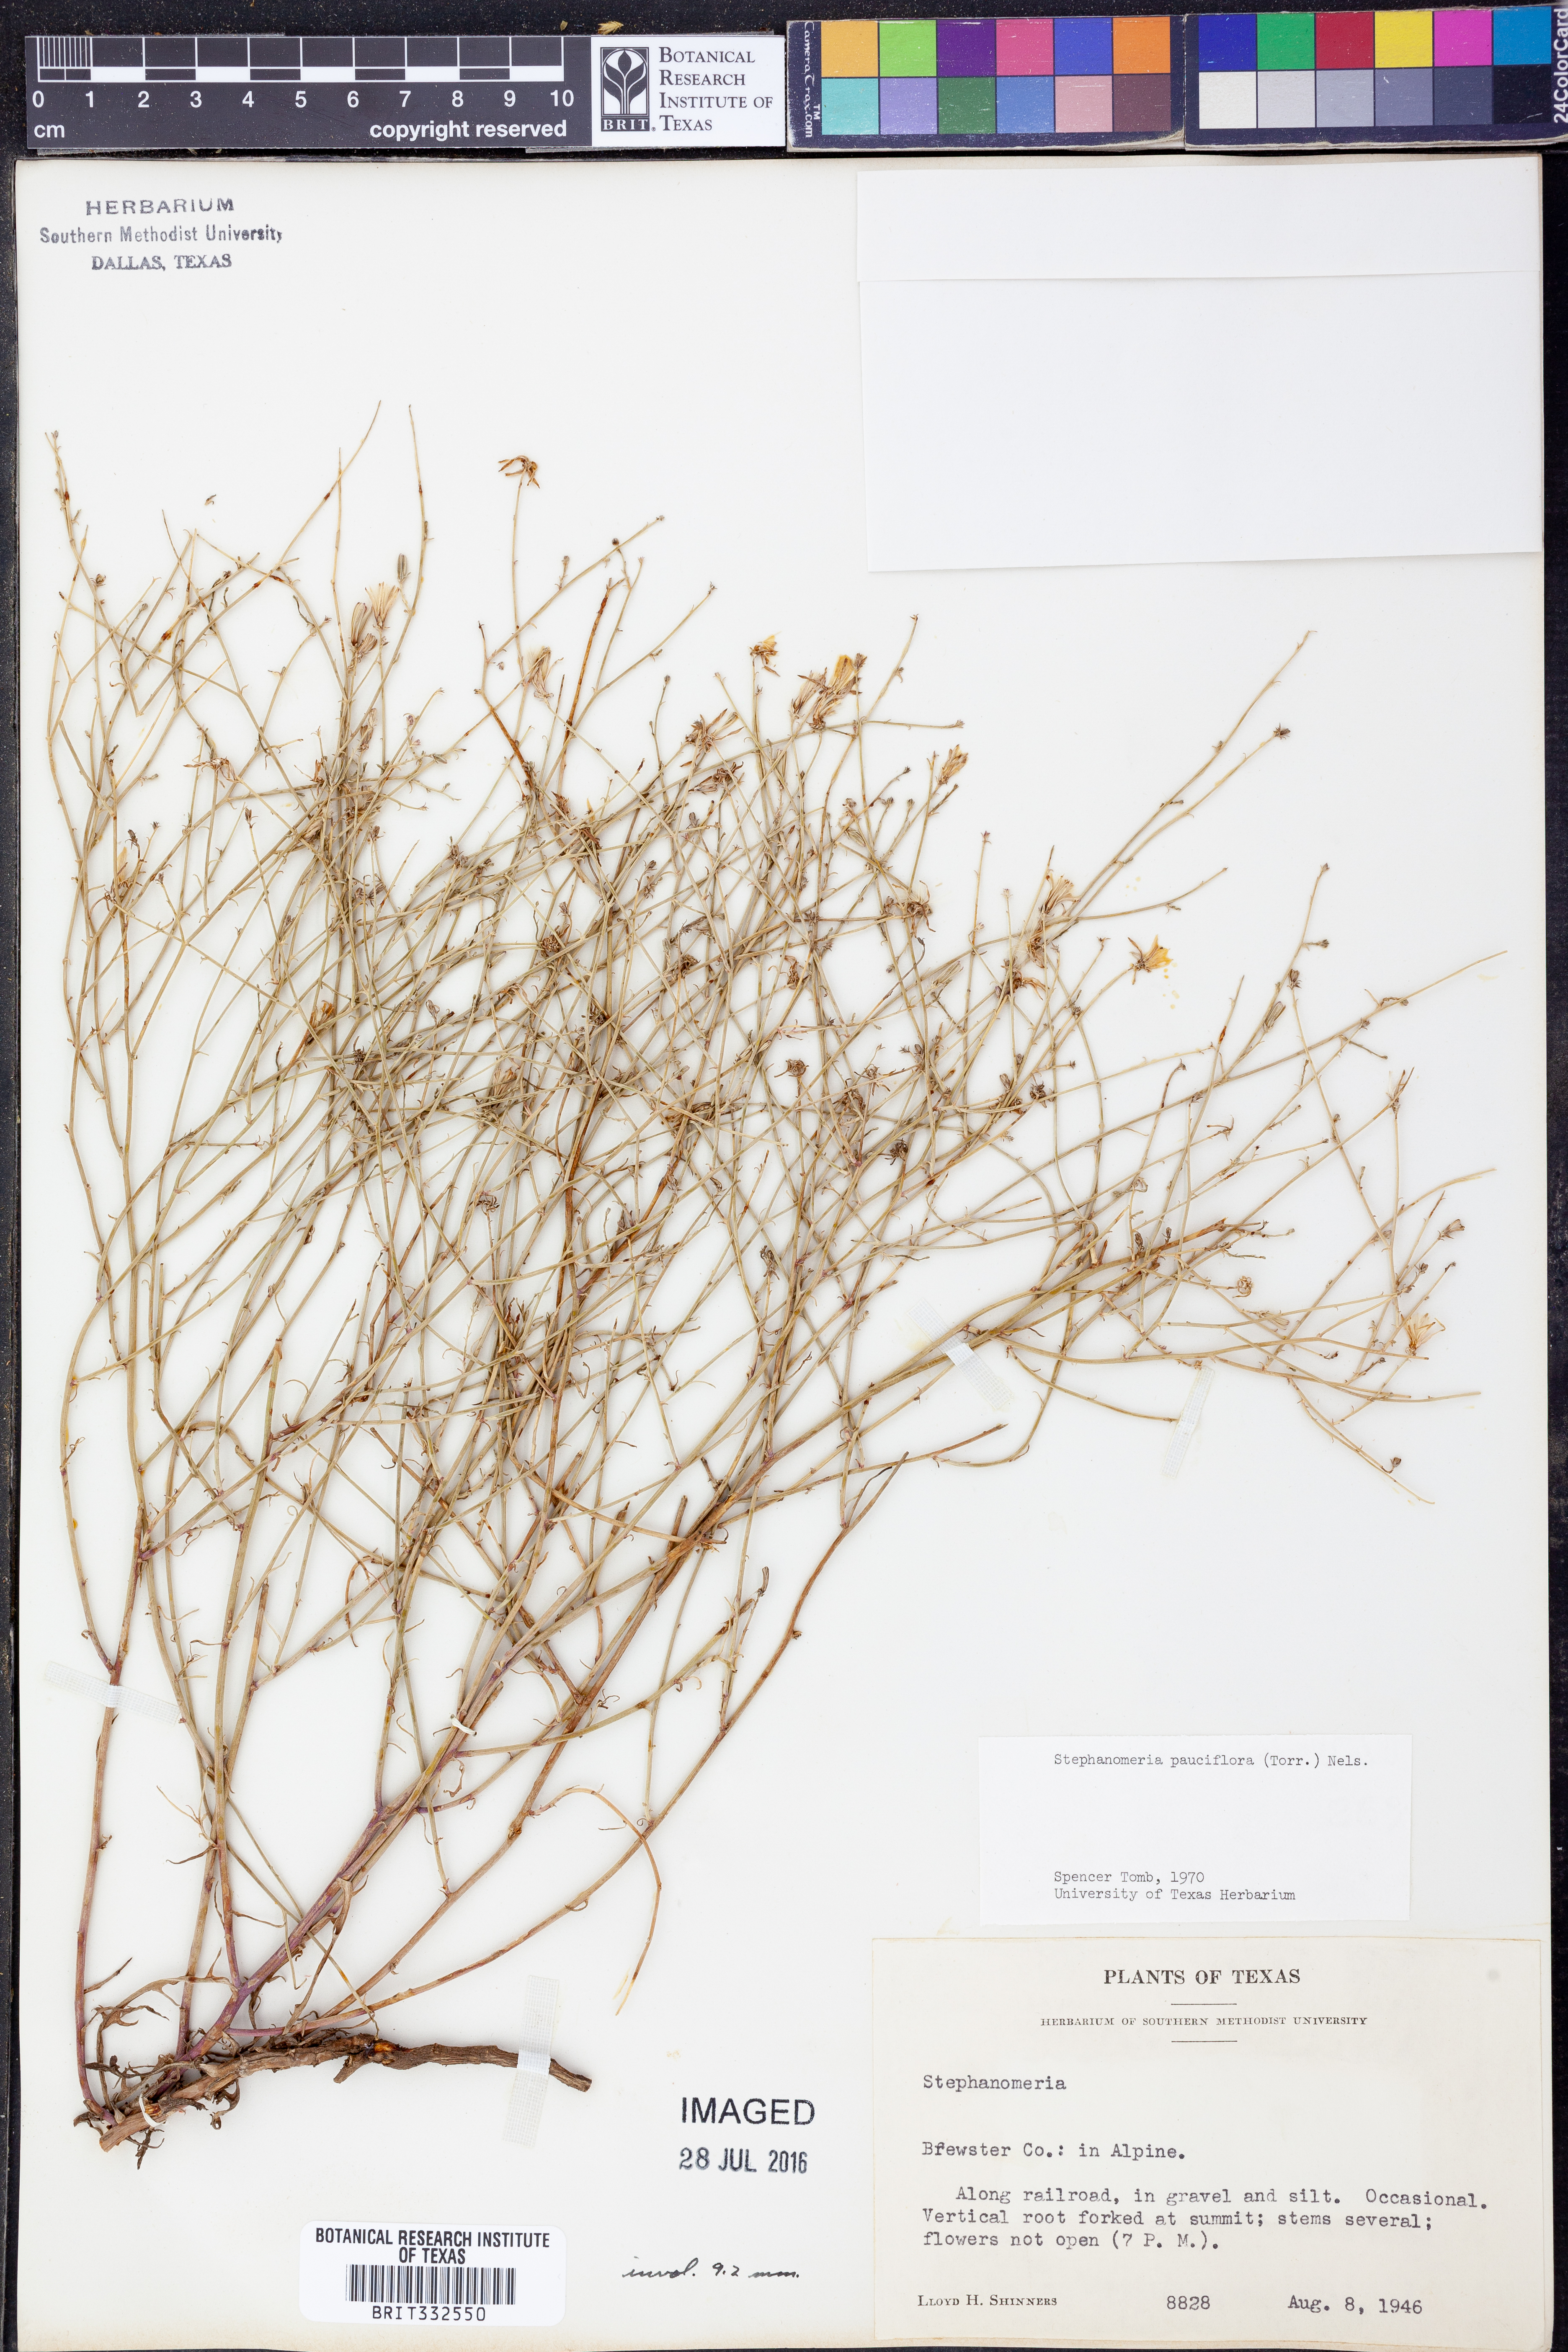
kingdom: Plantae
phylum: Tracheophyta
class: Magnoliopsida
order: Asterales
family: Asteraceae
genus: Stephanomeria
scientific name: Stephanomeria pauciflora
